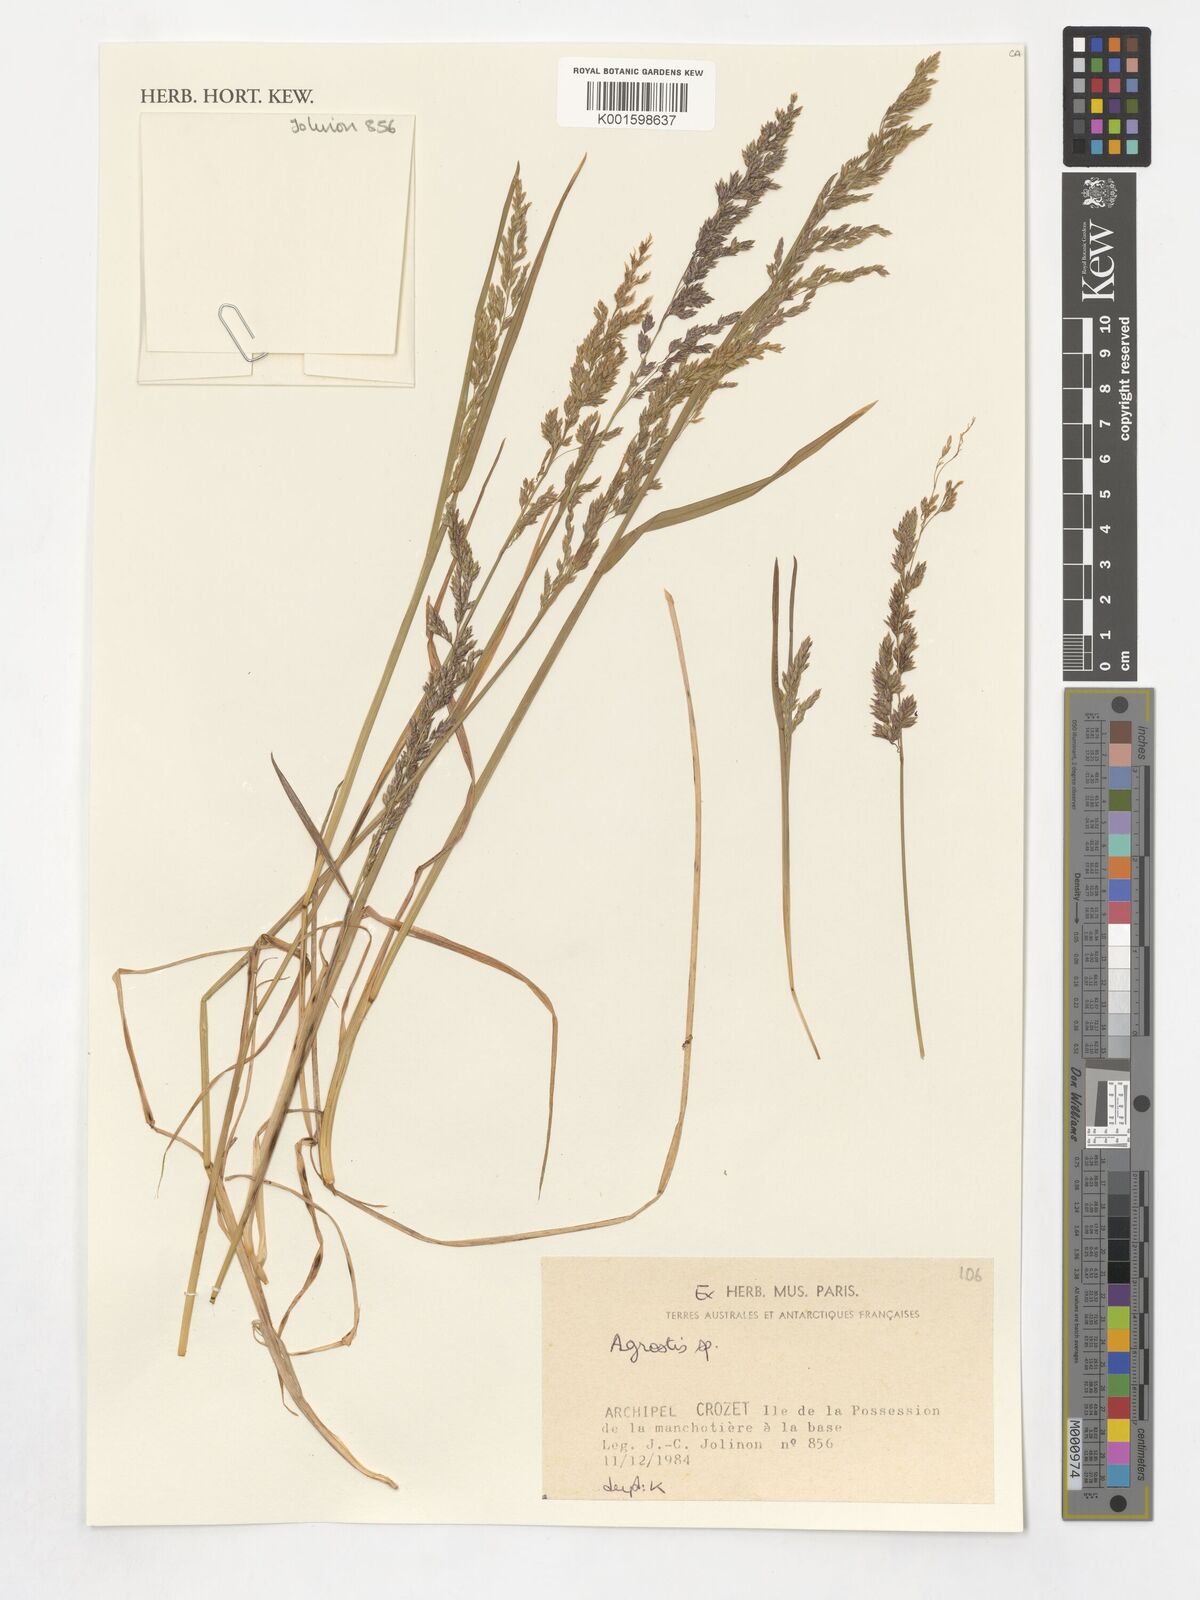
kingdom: Plantae
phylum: Tracheophyta
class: Liliopsida
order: Poales
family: Poaceae
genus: Agrostis
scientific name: Agrostis
